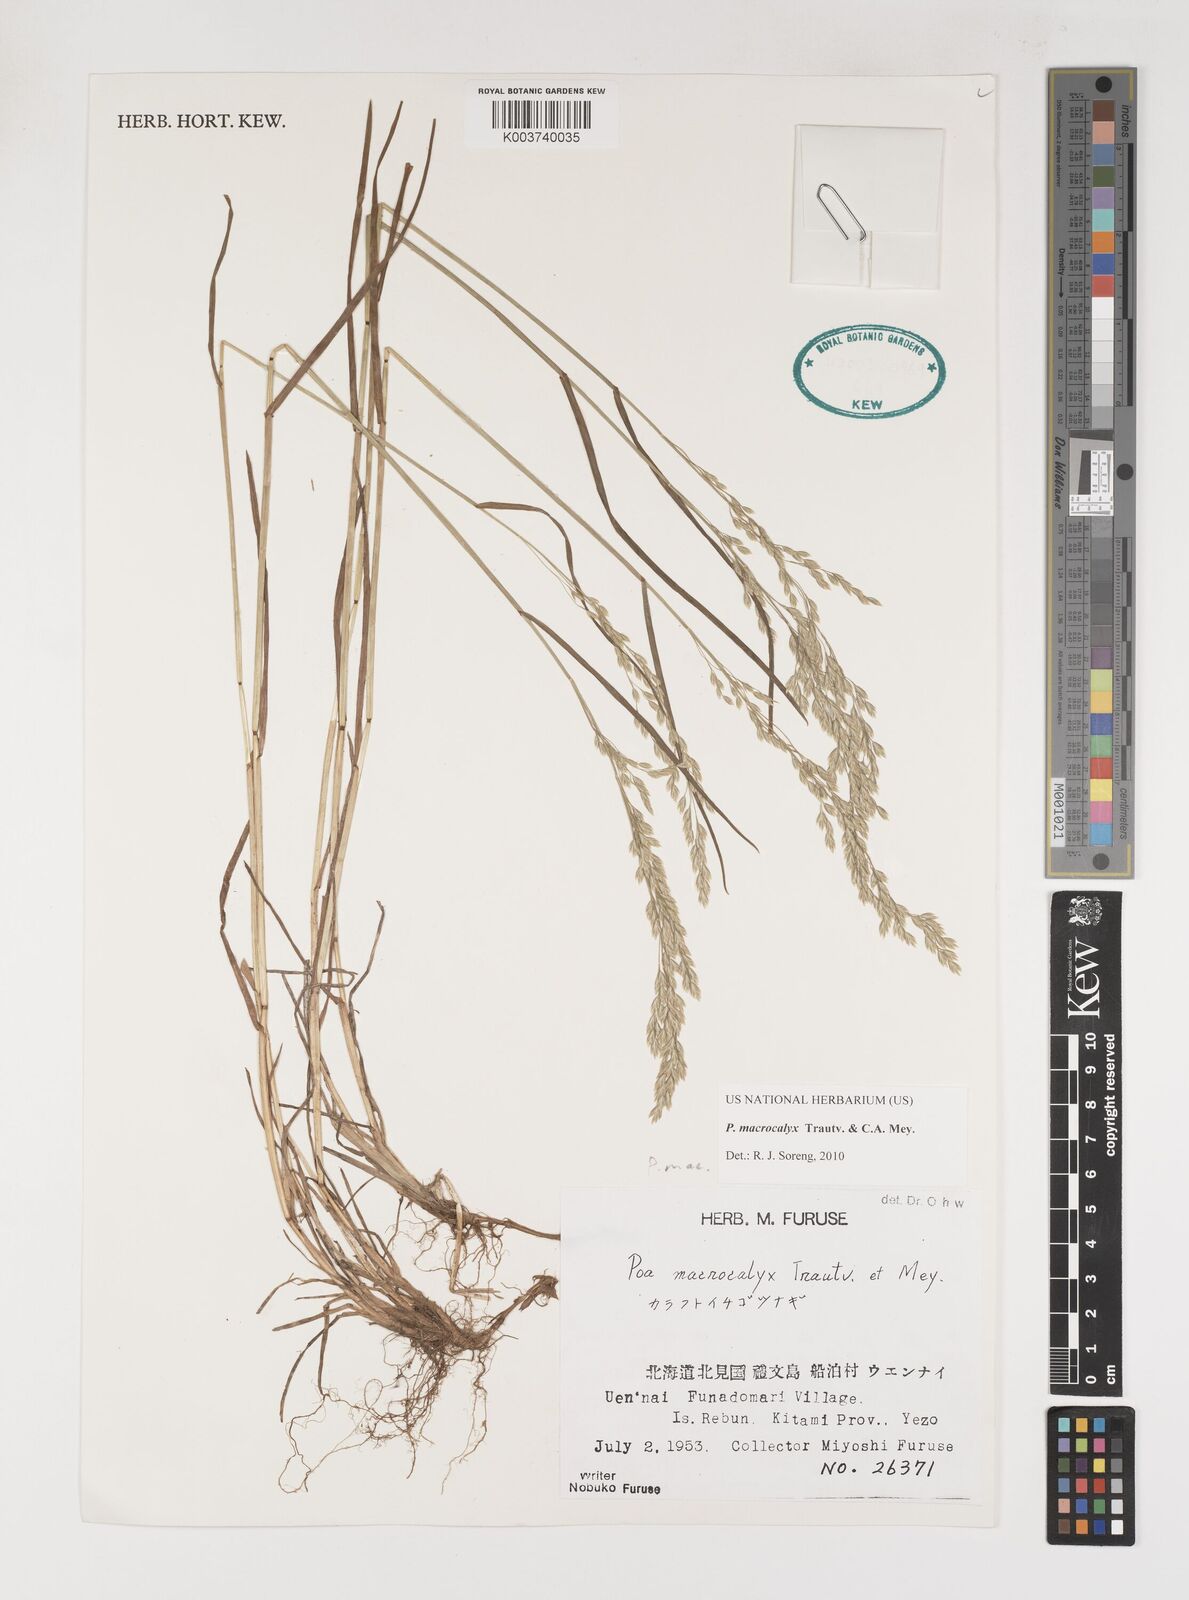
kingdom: Plantae
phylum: Tracheophyta
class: Liliopsida
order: Poales
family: Poaceae
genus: Poa
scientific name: Poa macrocalyx
